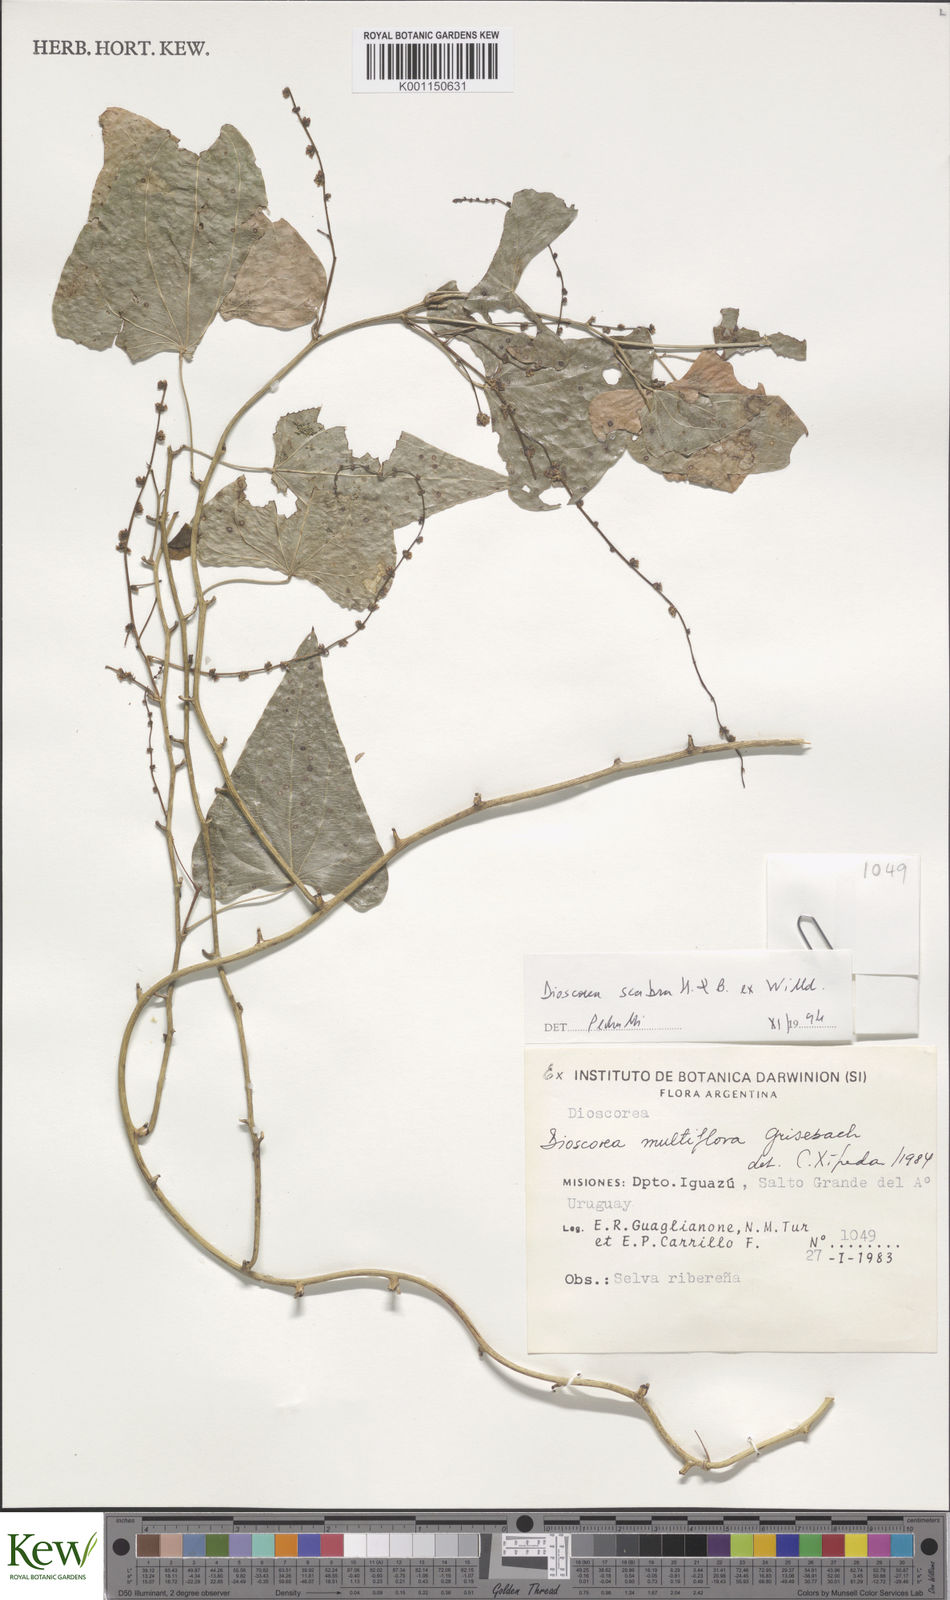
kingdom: Plantae
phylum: Tracheophyta
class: Liliopsida
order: Dioscoreales
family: Dioscoreaceae
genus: Dioscorea
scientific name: Dioscorea scabra
